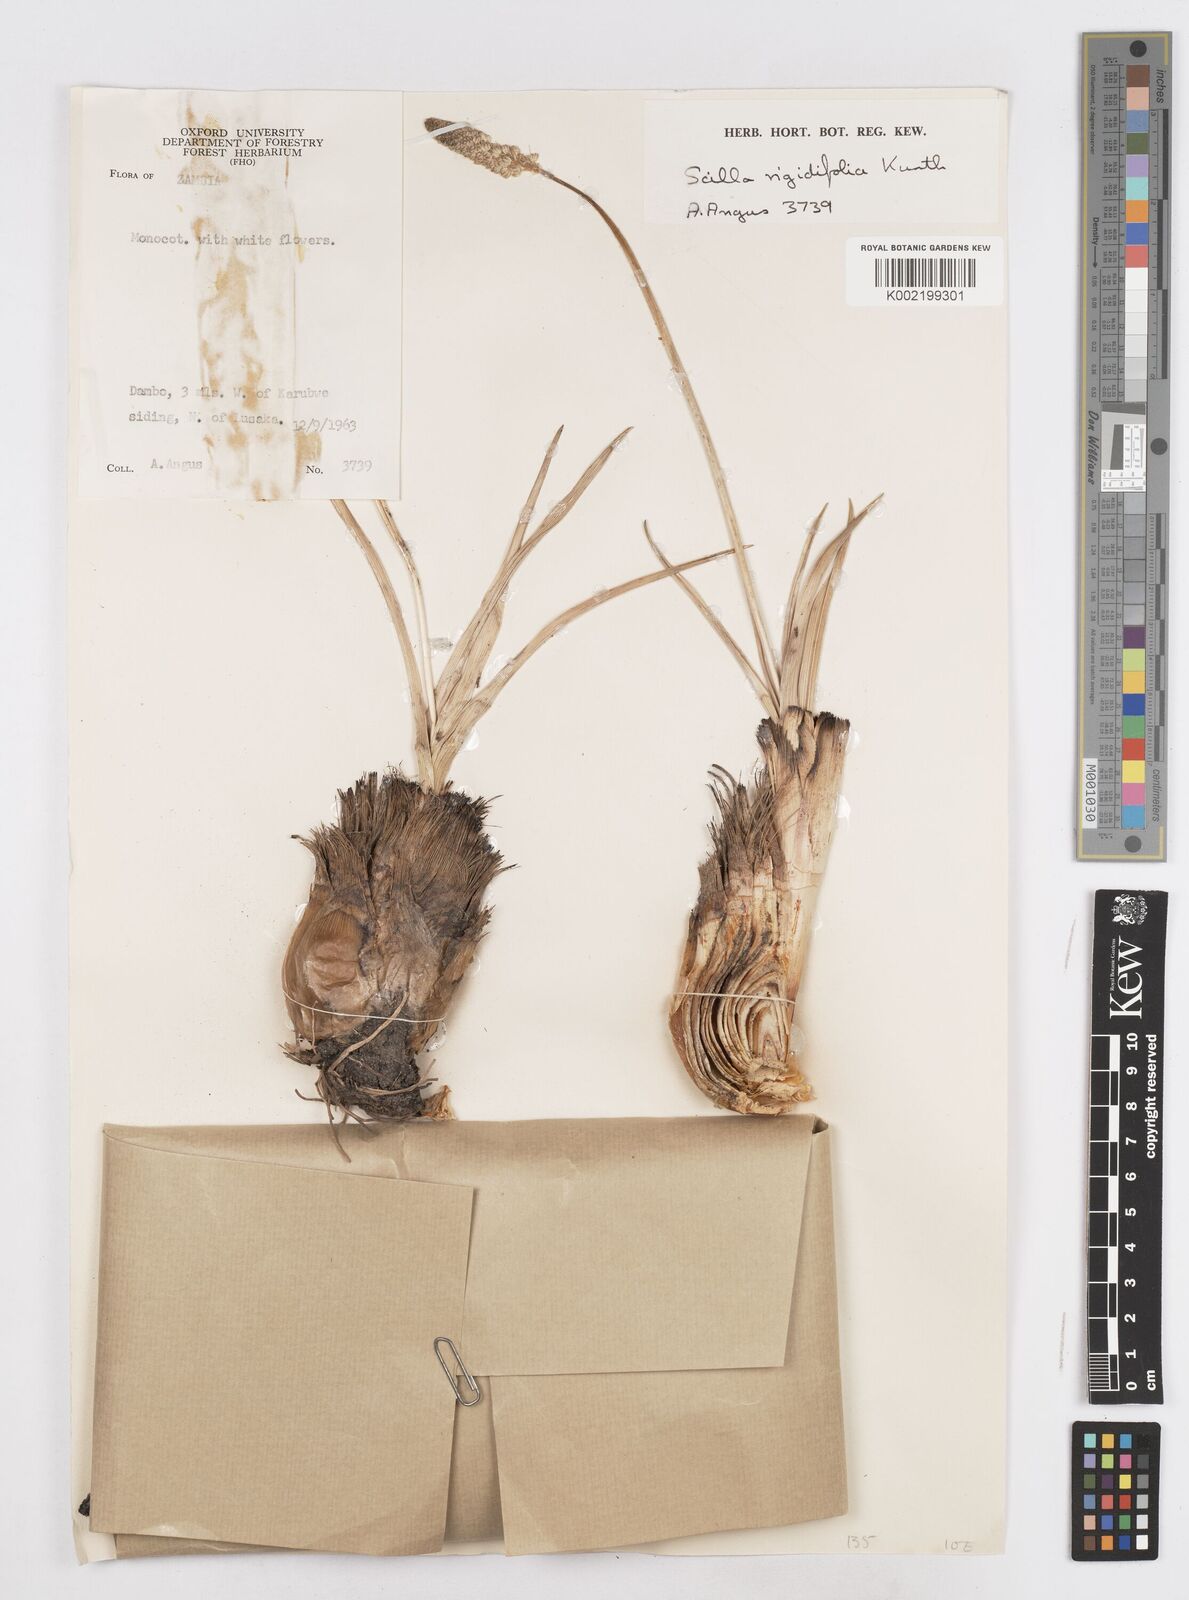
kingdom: Plantae
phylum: Tracheophyta
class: Liliopsida
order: Asparagales
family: Asparagaceae
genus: Schizocarphus
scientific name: Schizocarphus nervosus
